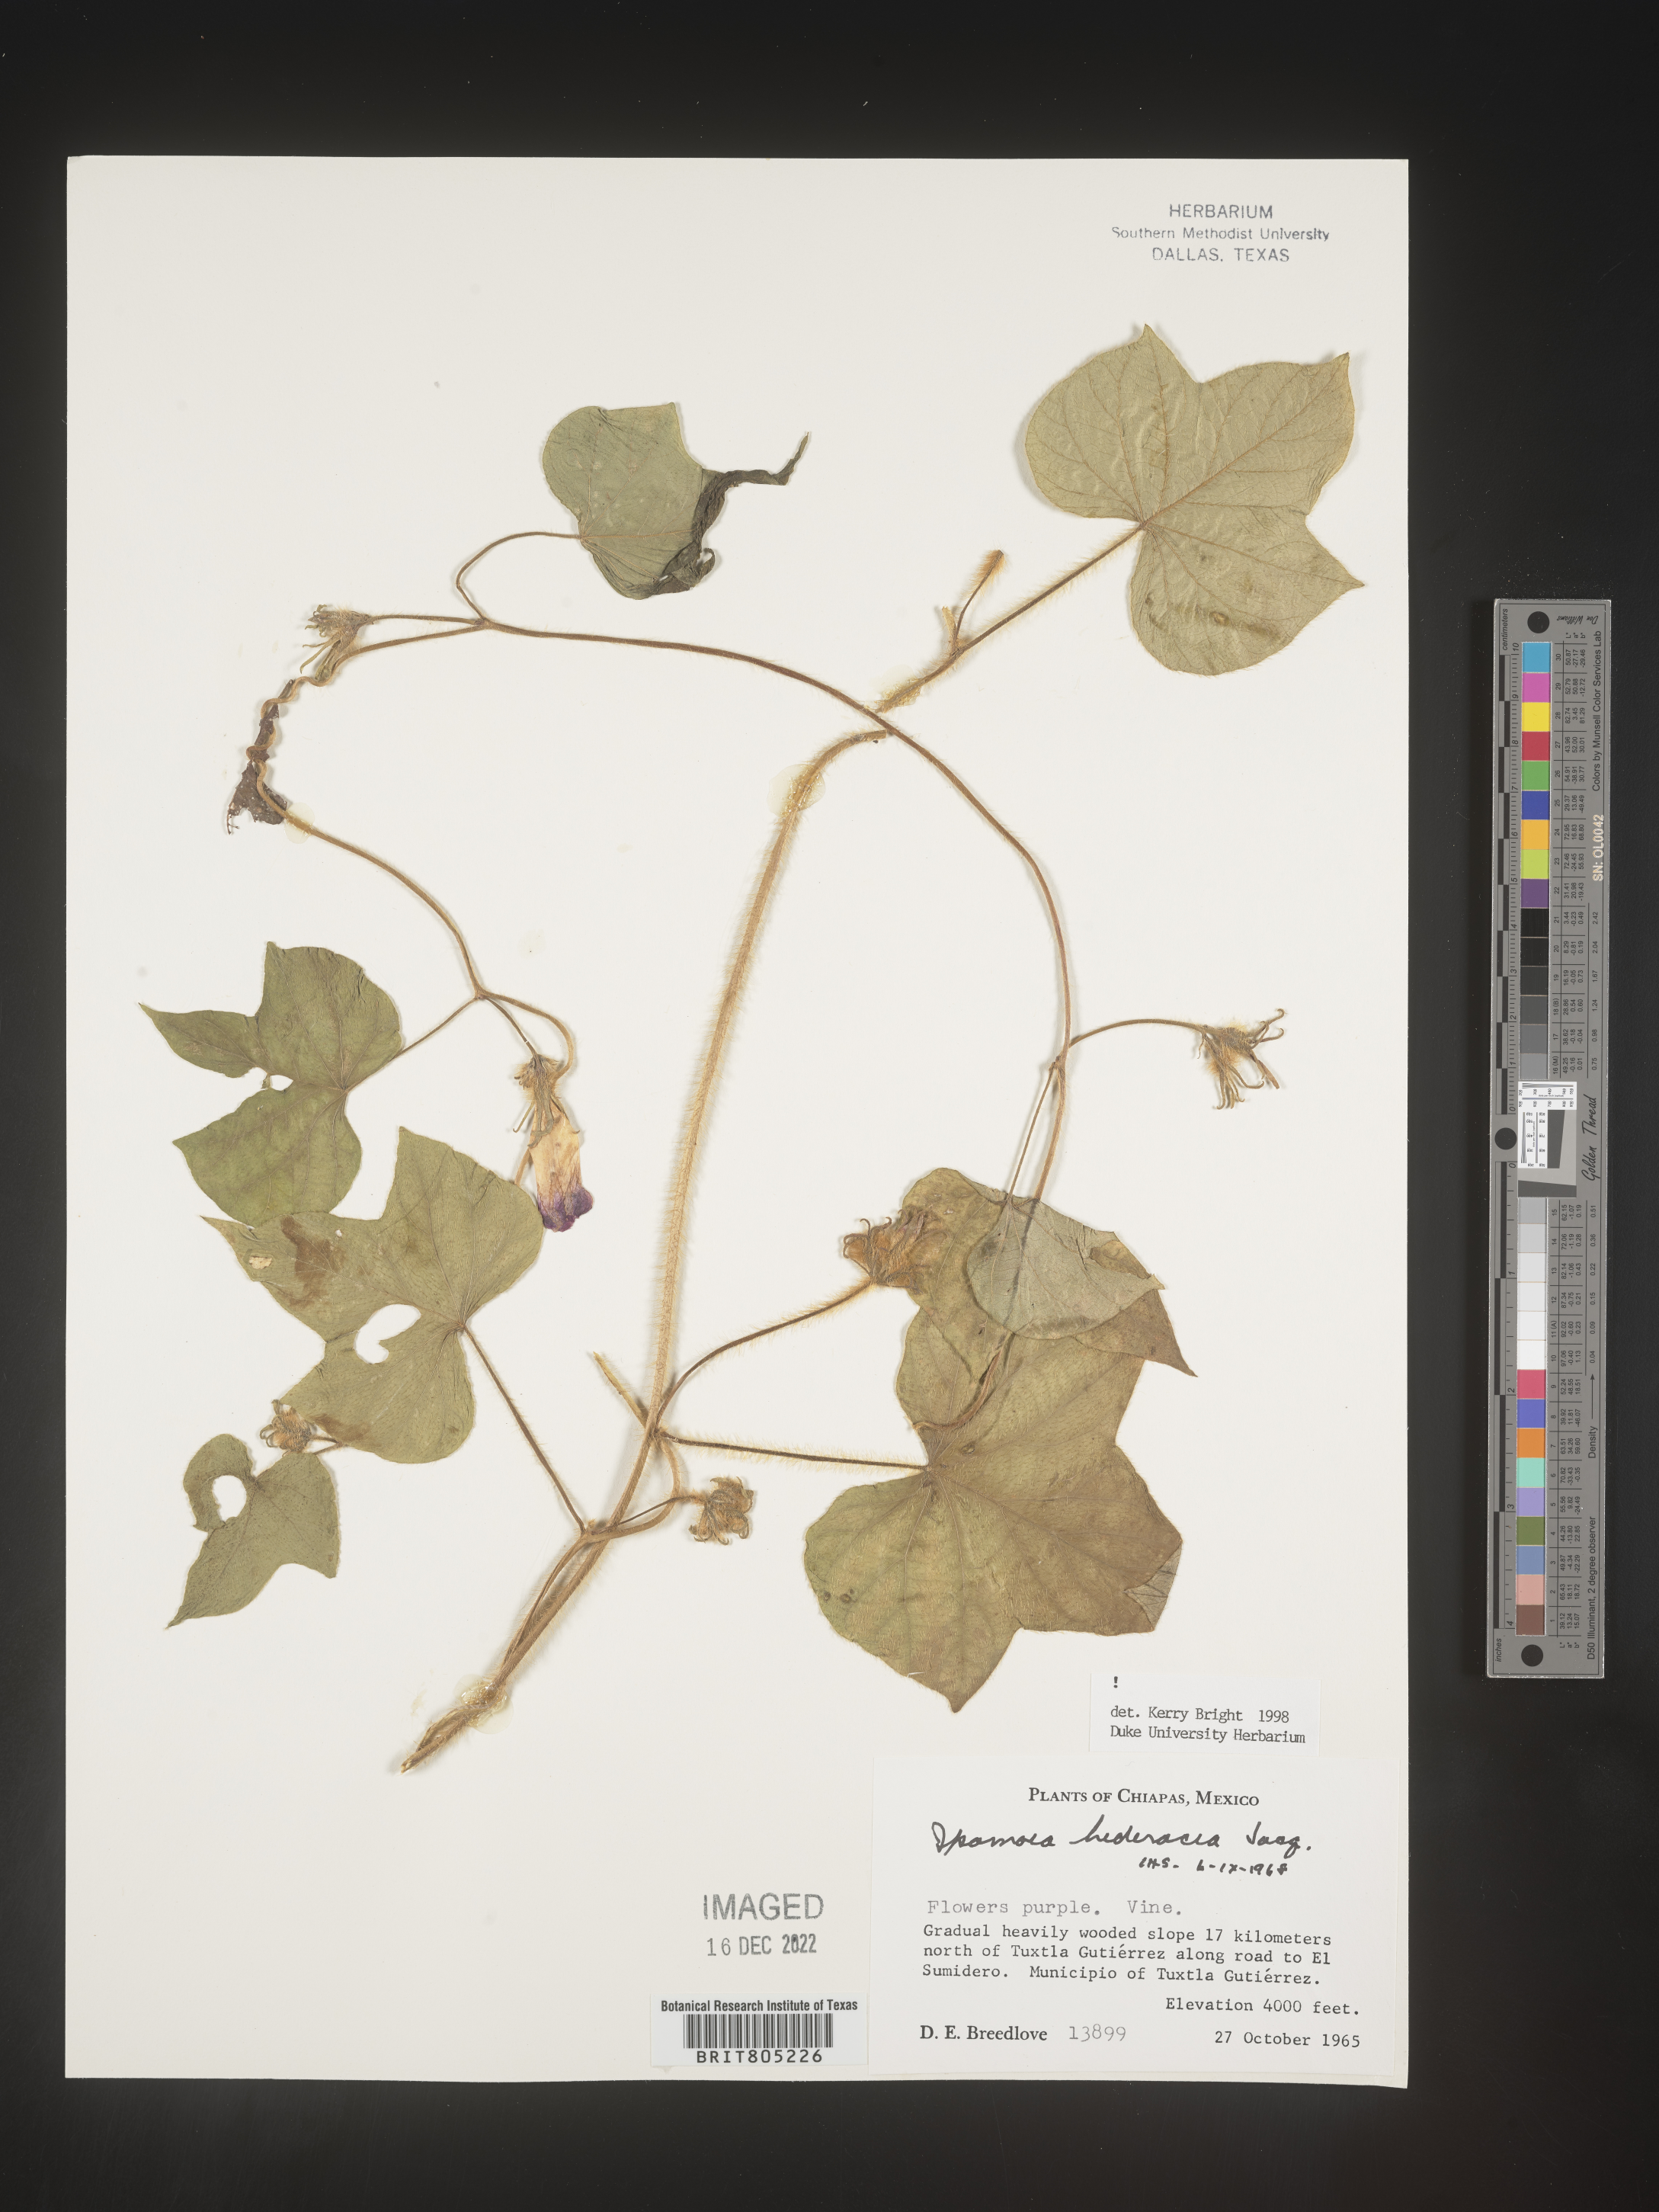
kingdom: Plantae
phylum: Tracheophyta
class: Magnoliopsida
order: Solanales
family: Convolvulaceae
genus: Ipomoea
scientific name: Ipomoea
